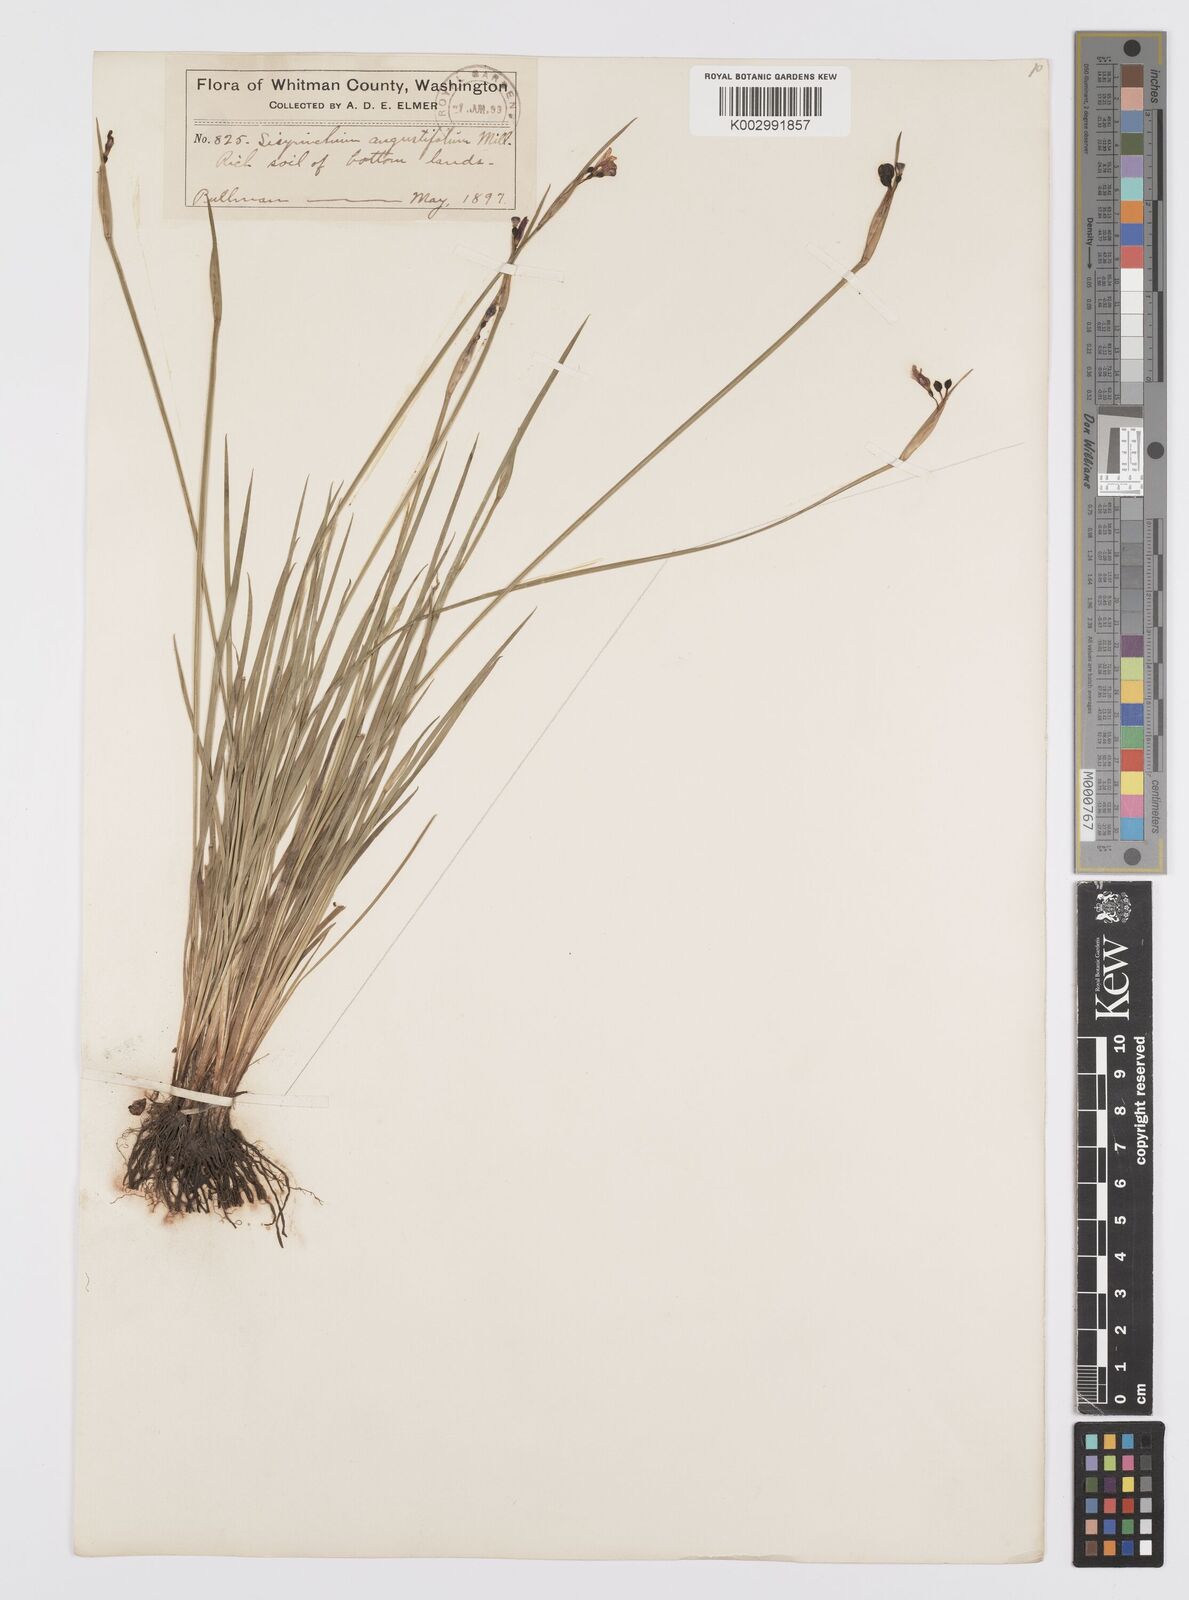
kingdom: Plantae
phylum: Tracheophyta
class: Liliopsida
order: Asparagales
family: Iridaceae
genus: Sisyrinchium
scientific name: Sisyrinchium bermudiana
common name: Blue-eyed-grass
